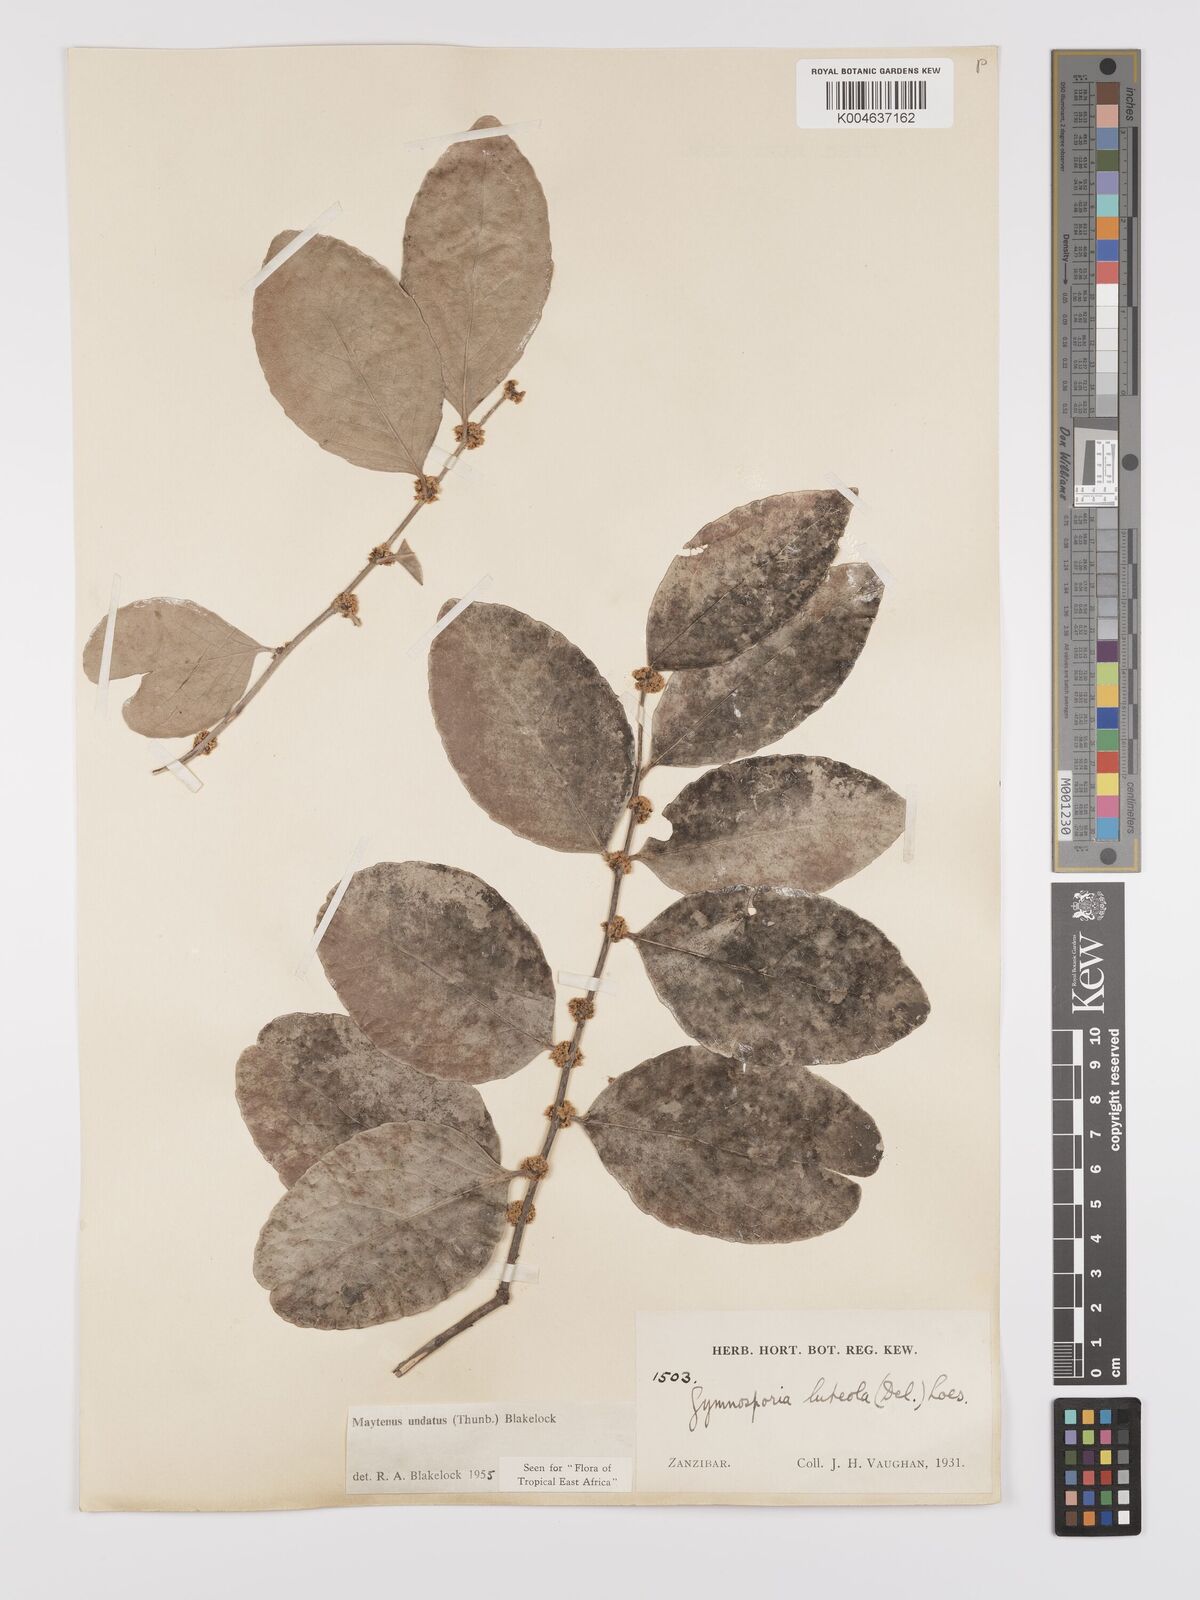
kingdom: Plantae
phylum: Tracheophyta
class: Magnoliopsida
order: Celastrales
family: Celastraceae
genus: Gymnosporia
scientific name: Gymnosporia undata
